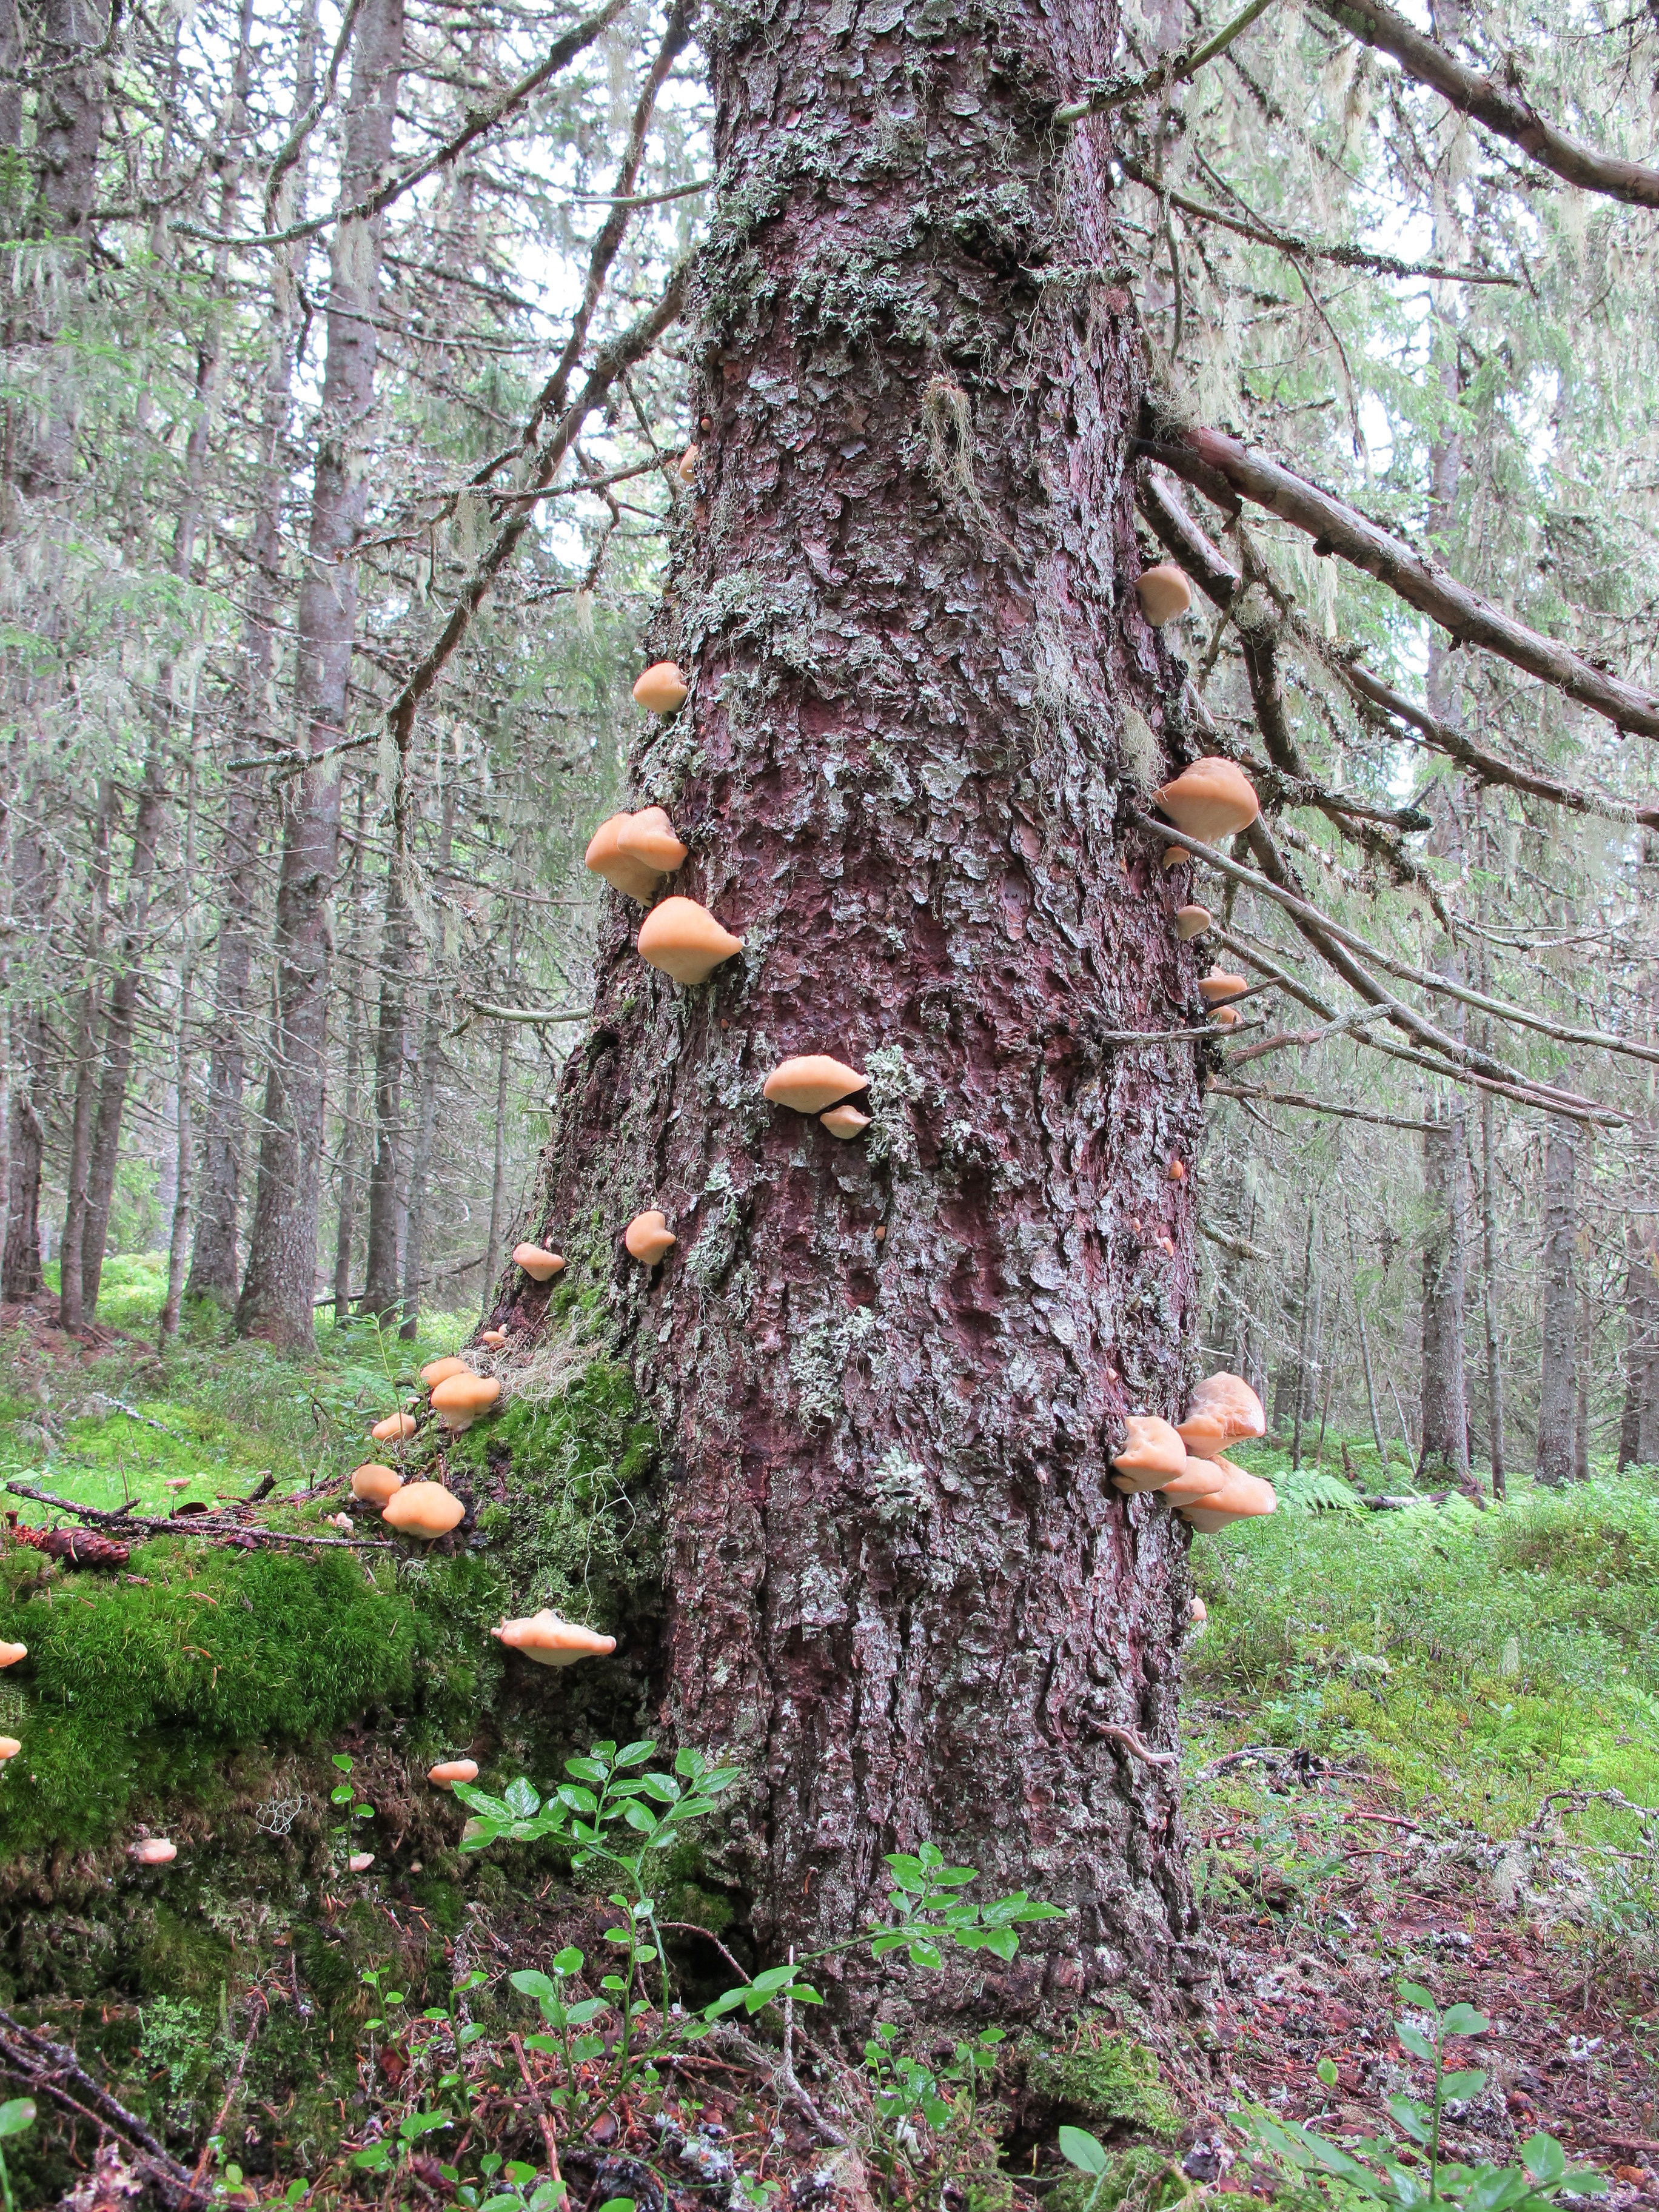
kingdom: Fungi
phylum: Basidiomycota
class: Agaricomycetes
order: Polyporales
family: Fomitopsidaceae
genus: Climacocystis
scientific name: Climacocystis borealis
